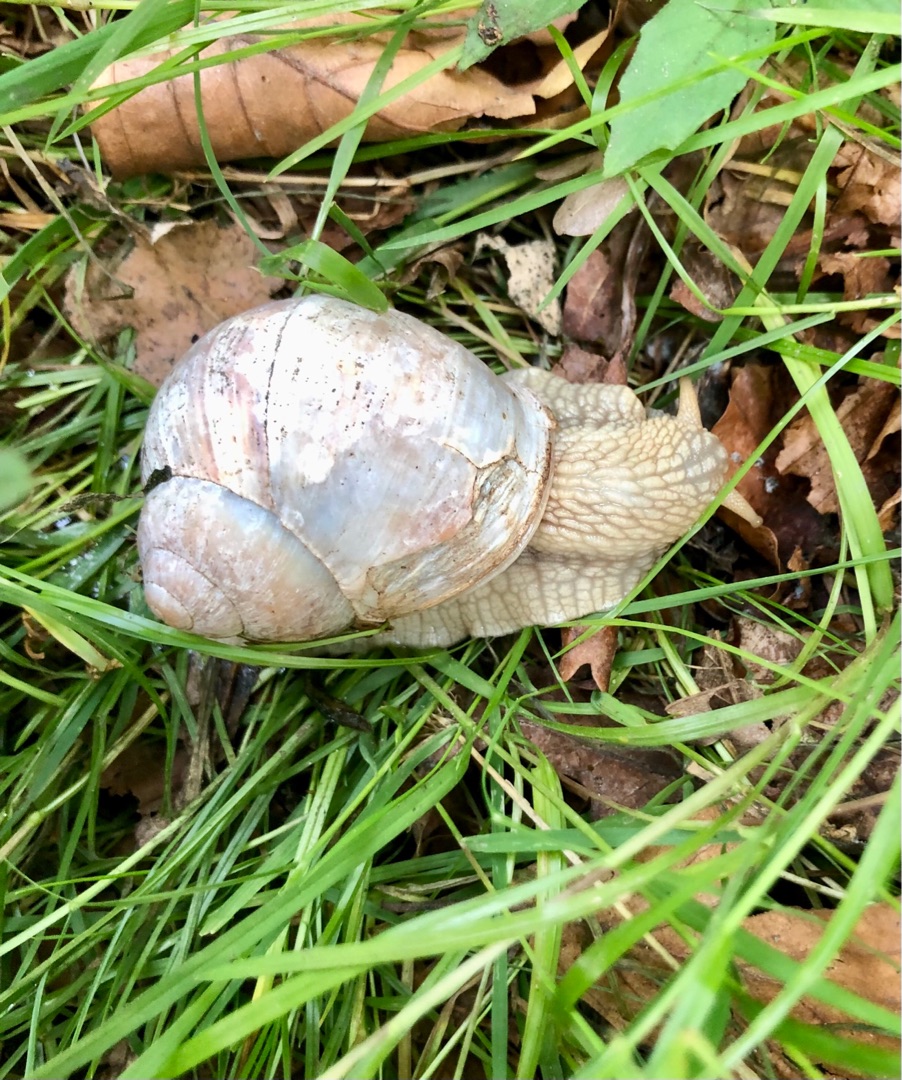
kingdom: Animalia
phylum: Mollusca
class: Gastropoda
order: Stylommatophora
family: Helicidae
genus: Helix
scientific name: Helix pomatia
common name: Vinbjergsnegl
